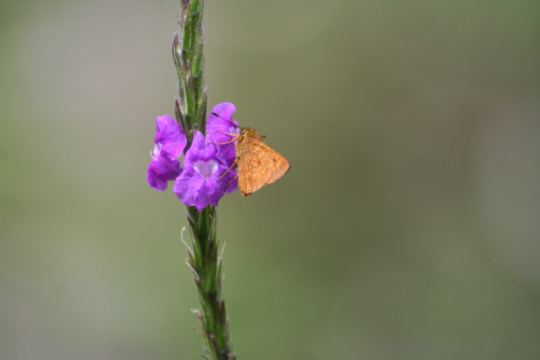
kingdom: Animalia
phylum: Arthropoda
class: Insecta
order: Lepidoptera
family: Hesperiidae
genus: Hylephila
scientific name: Hylephila phyleus
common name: Fiery Skipper
